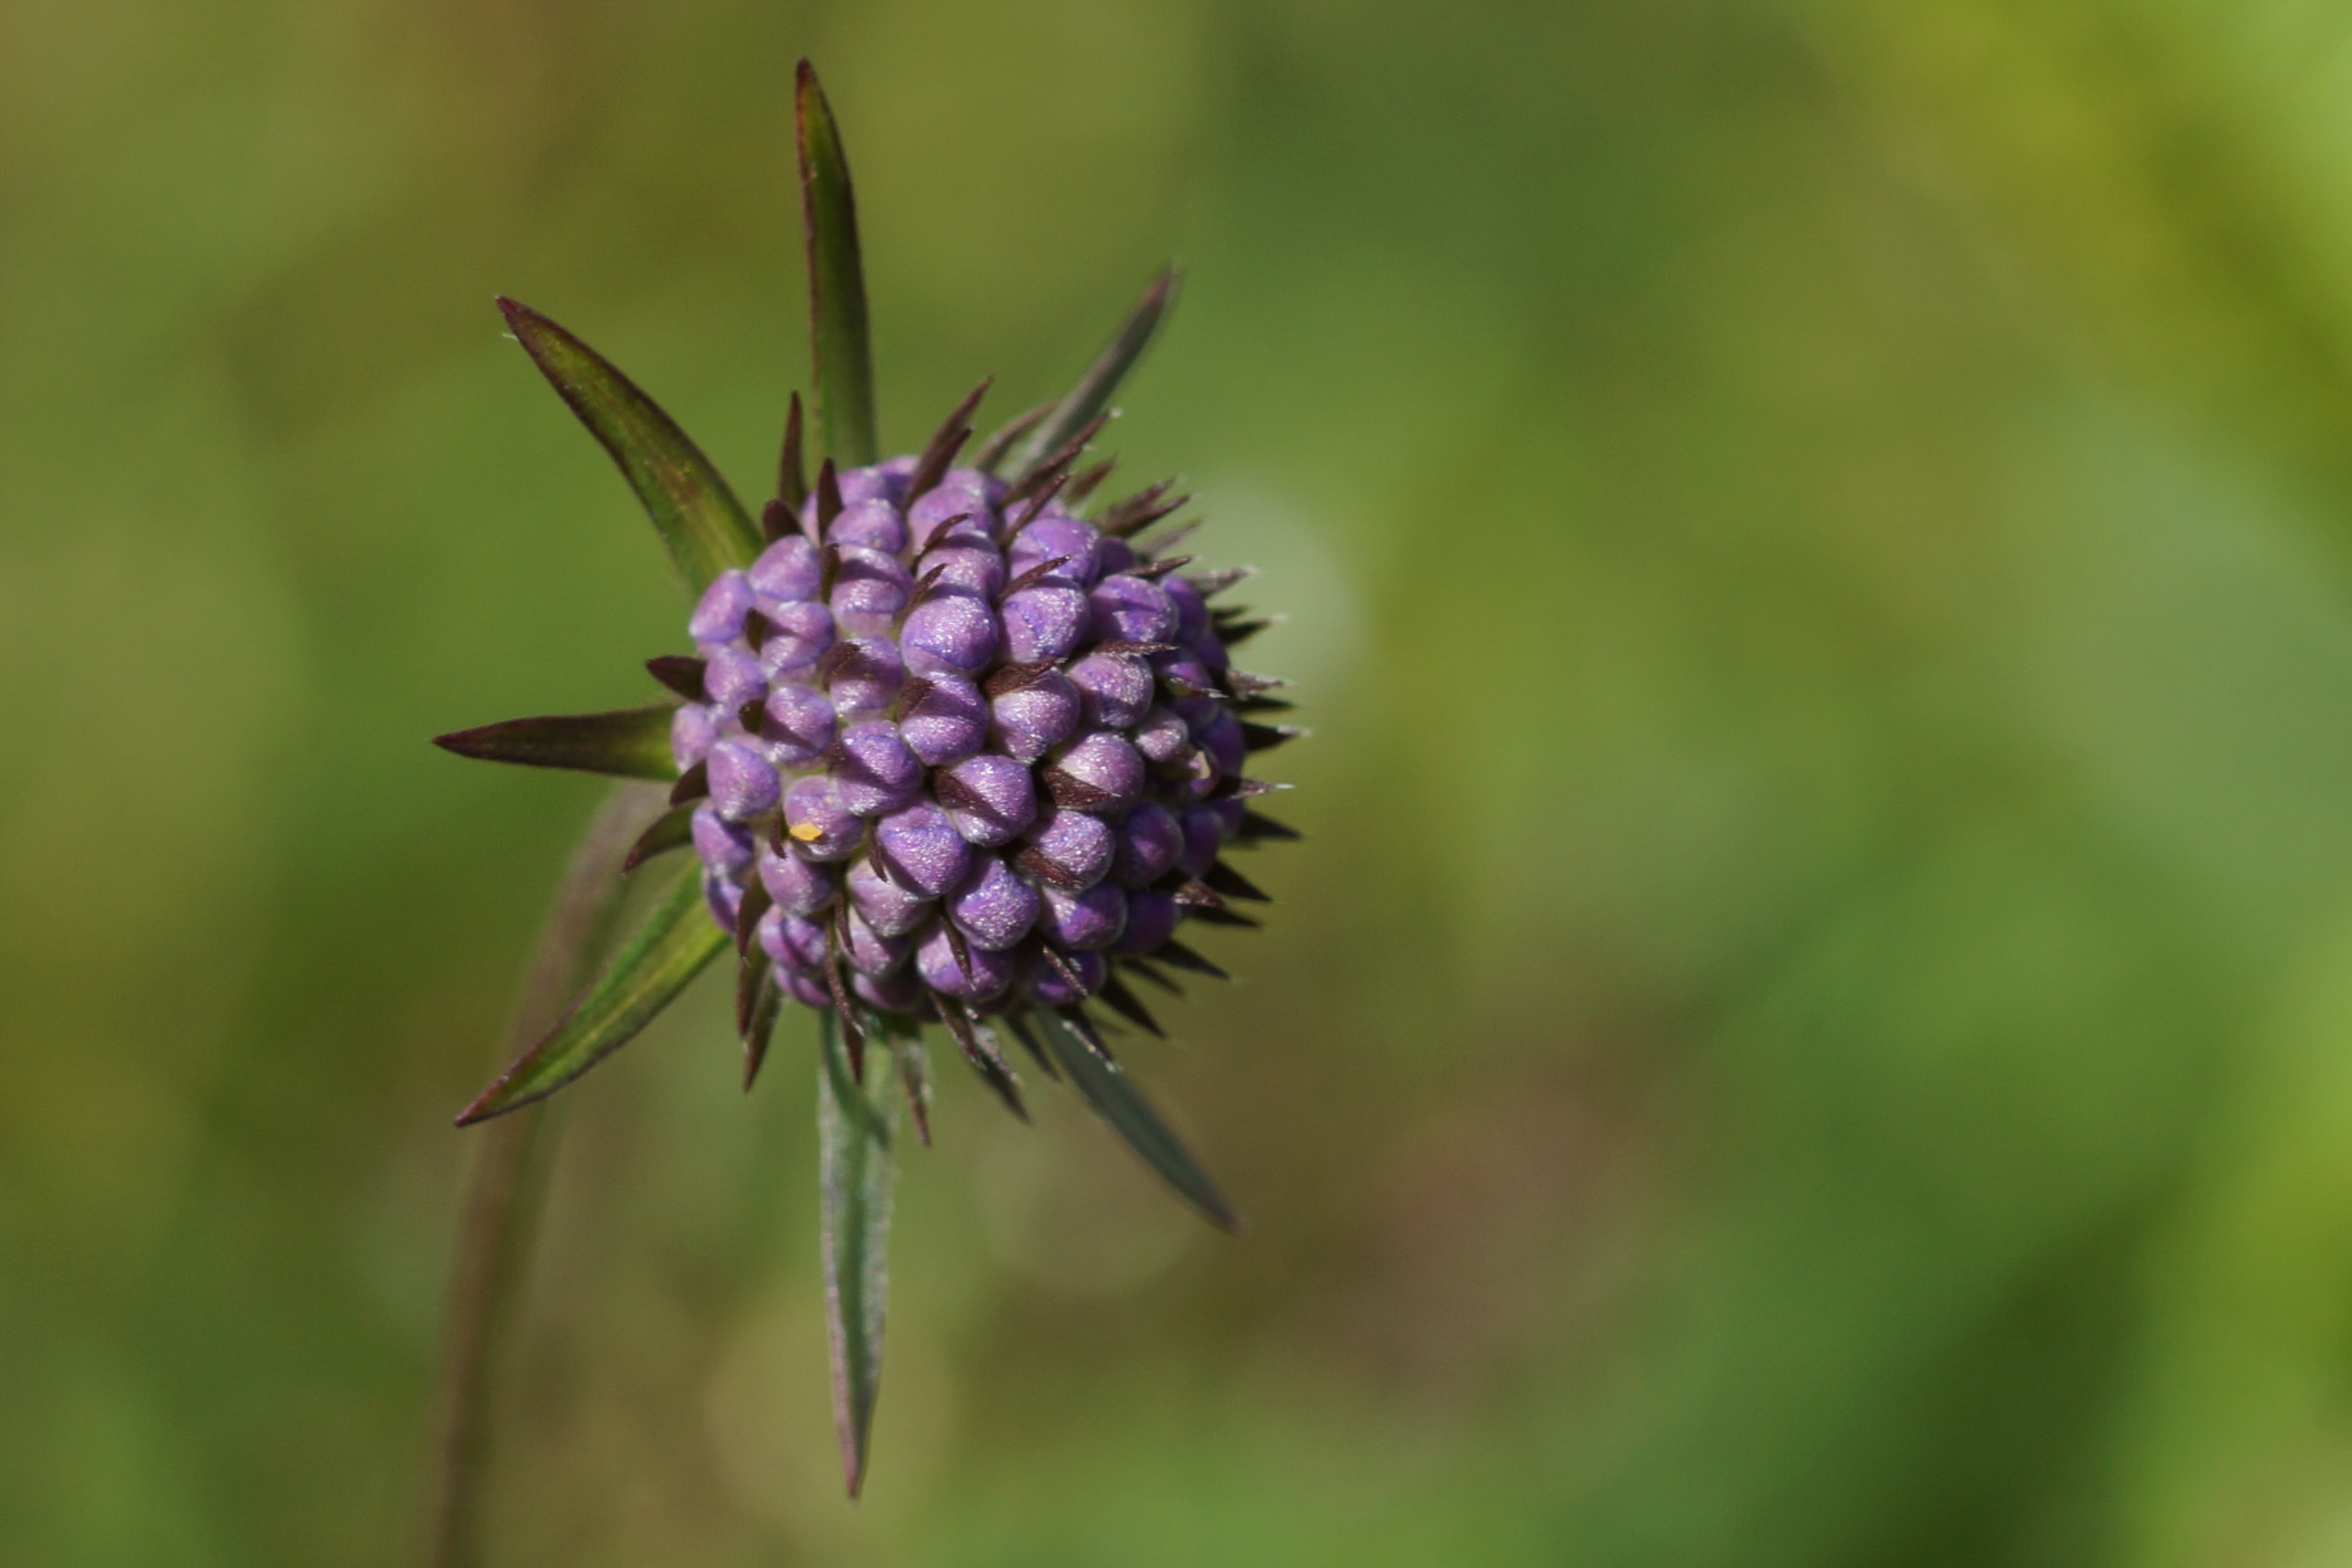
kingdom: Plantae
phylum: Tracheophyta
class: Magnoliopsida
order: Dipsacales
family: Caprifoliaceae
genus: Succisa
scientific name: Succisa pratensis
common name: Djævelsbid
